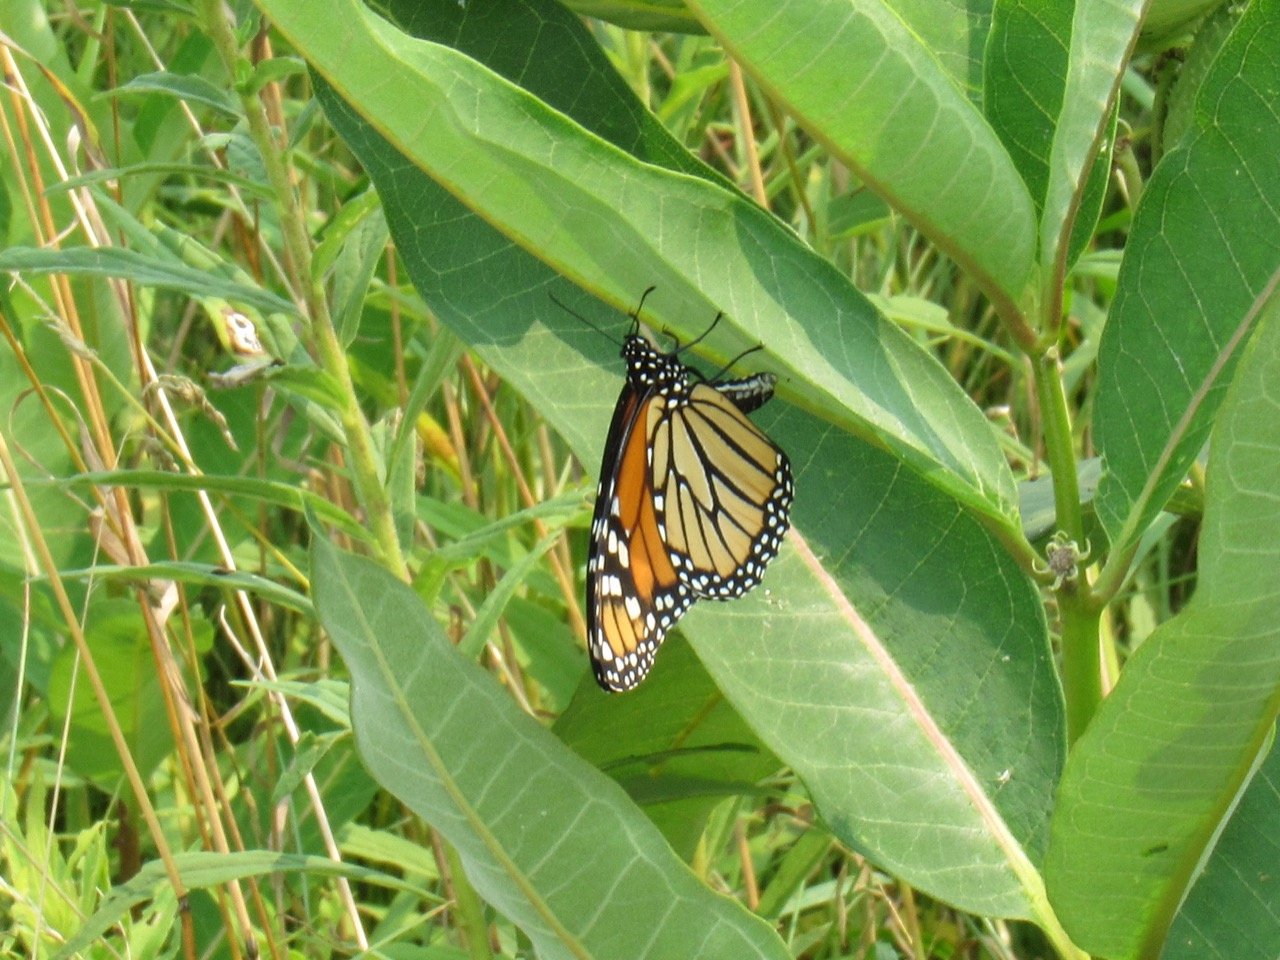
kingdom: Animalia
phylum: Arthropoda
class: Insecta
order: Lepidoptera
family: Nymphalidae
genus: Danaus
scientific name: Danaus plexippus
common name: Monarch
